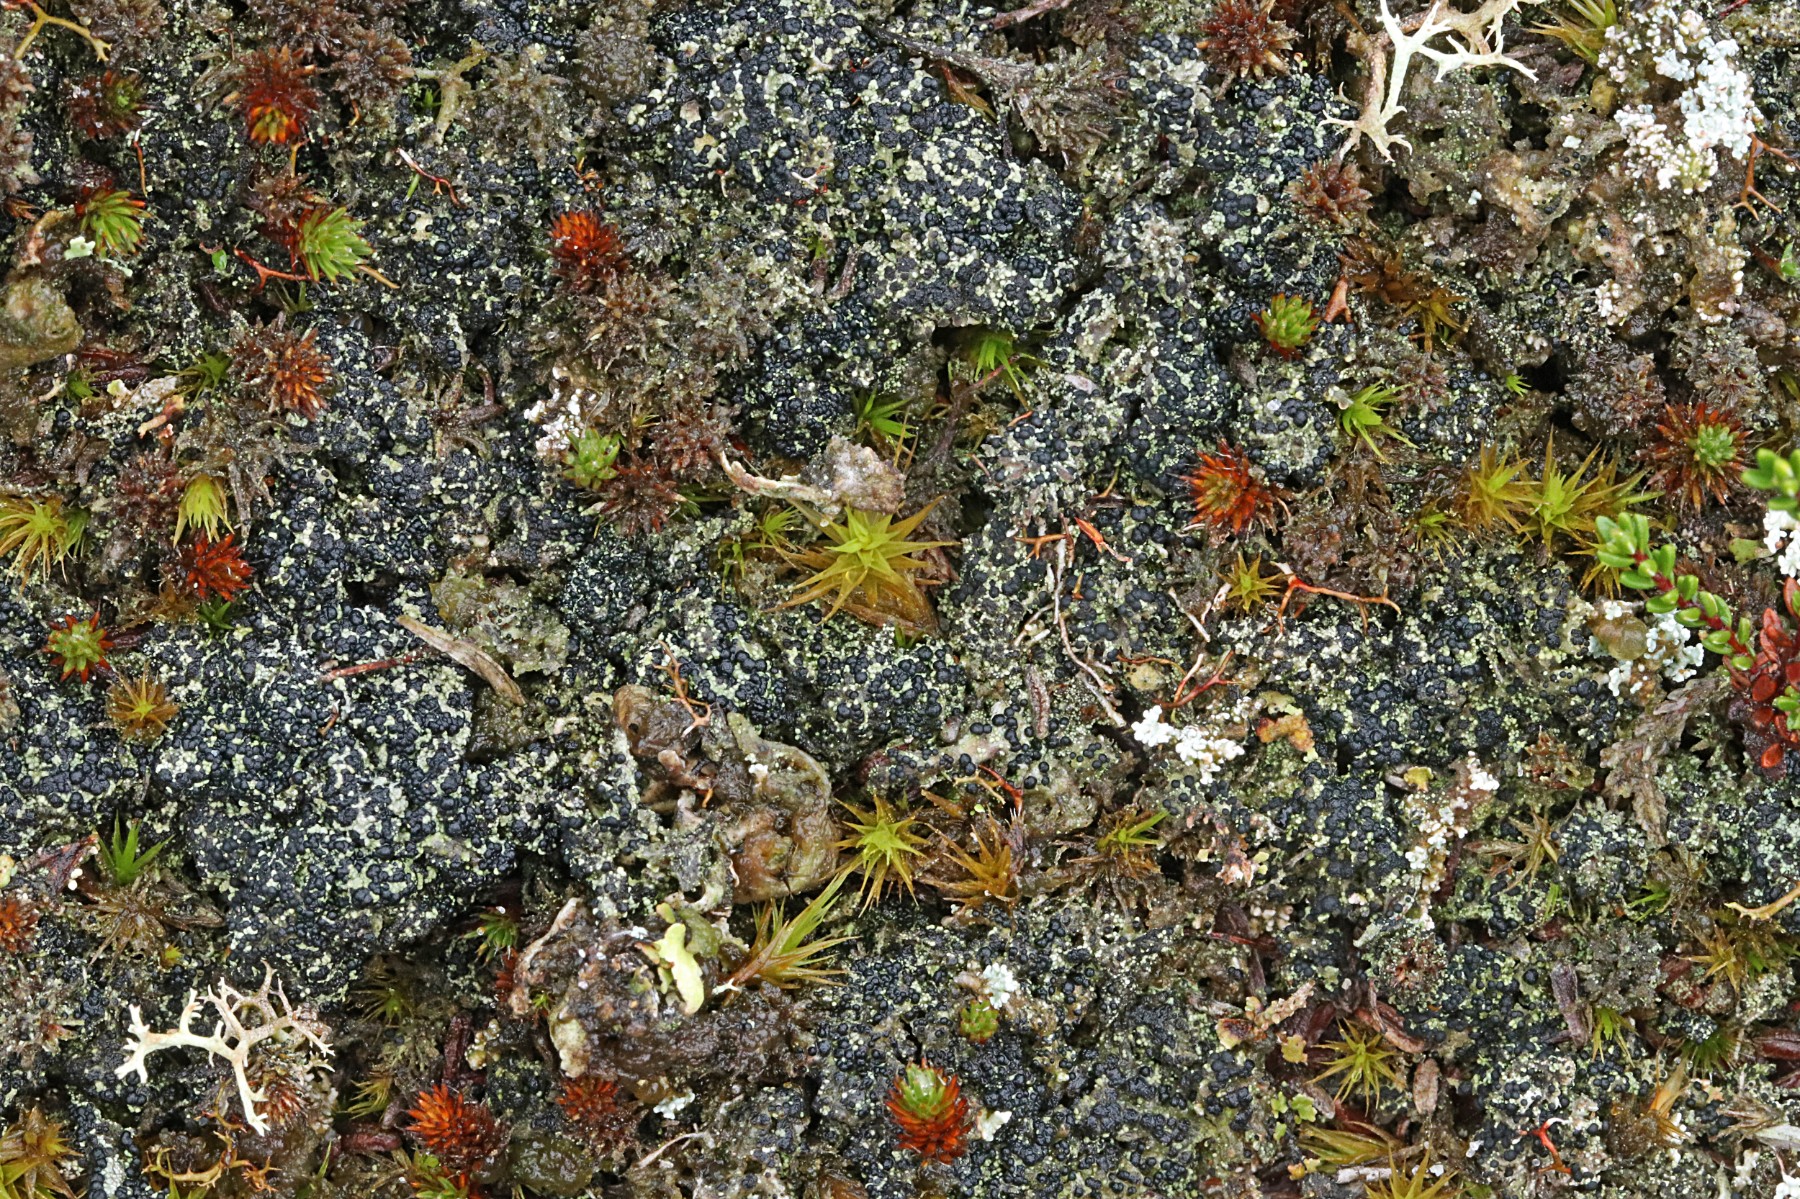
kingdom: Fungi
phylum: Ascomycota
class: Lecanoromycetes
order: Lecanorales
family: Byssolomataceae
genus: Micarea
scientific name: Micarea lignaria
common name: tørve-knaplav
